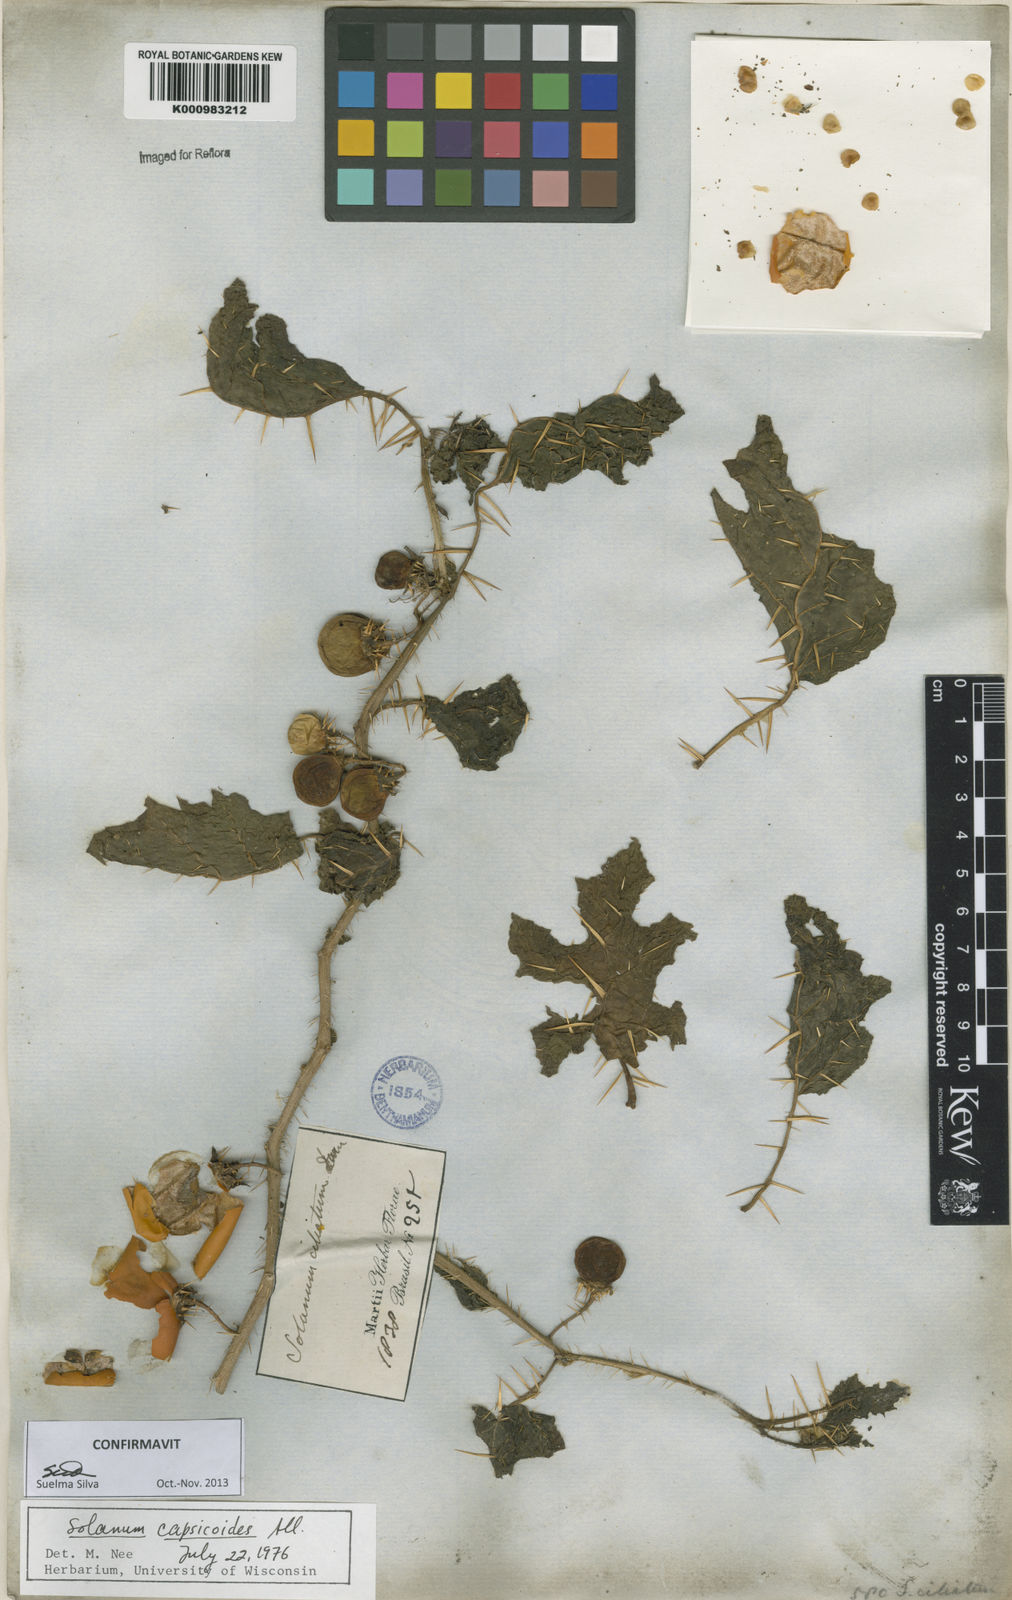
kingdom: Plantae
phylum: Tracheophyta
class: Magnoliopsida
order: Solanales
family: Solanaceae
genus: Solanum
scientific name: Solanum capsicoides
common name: Cockroach berry
